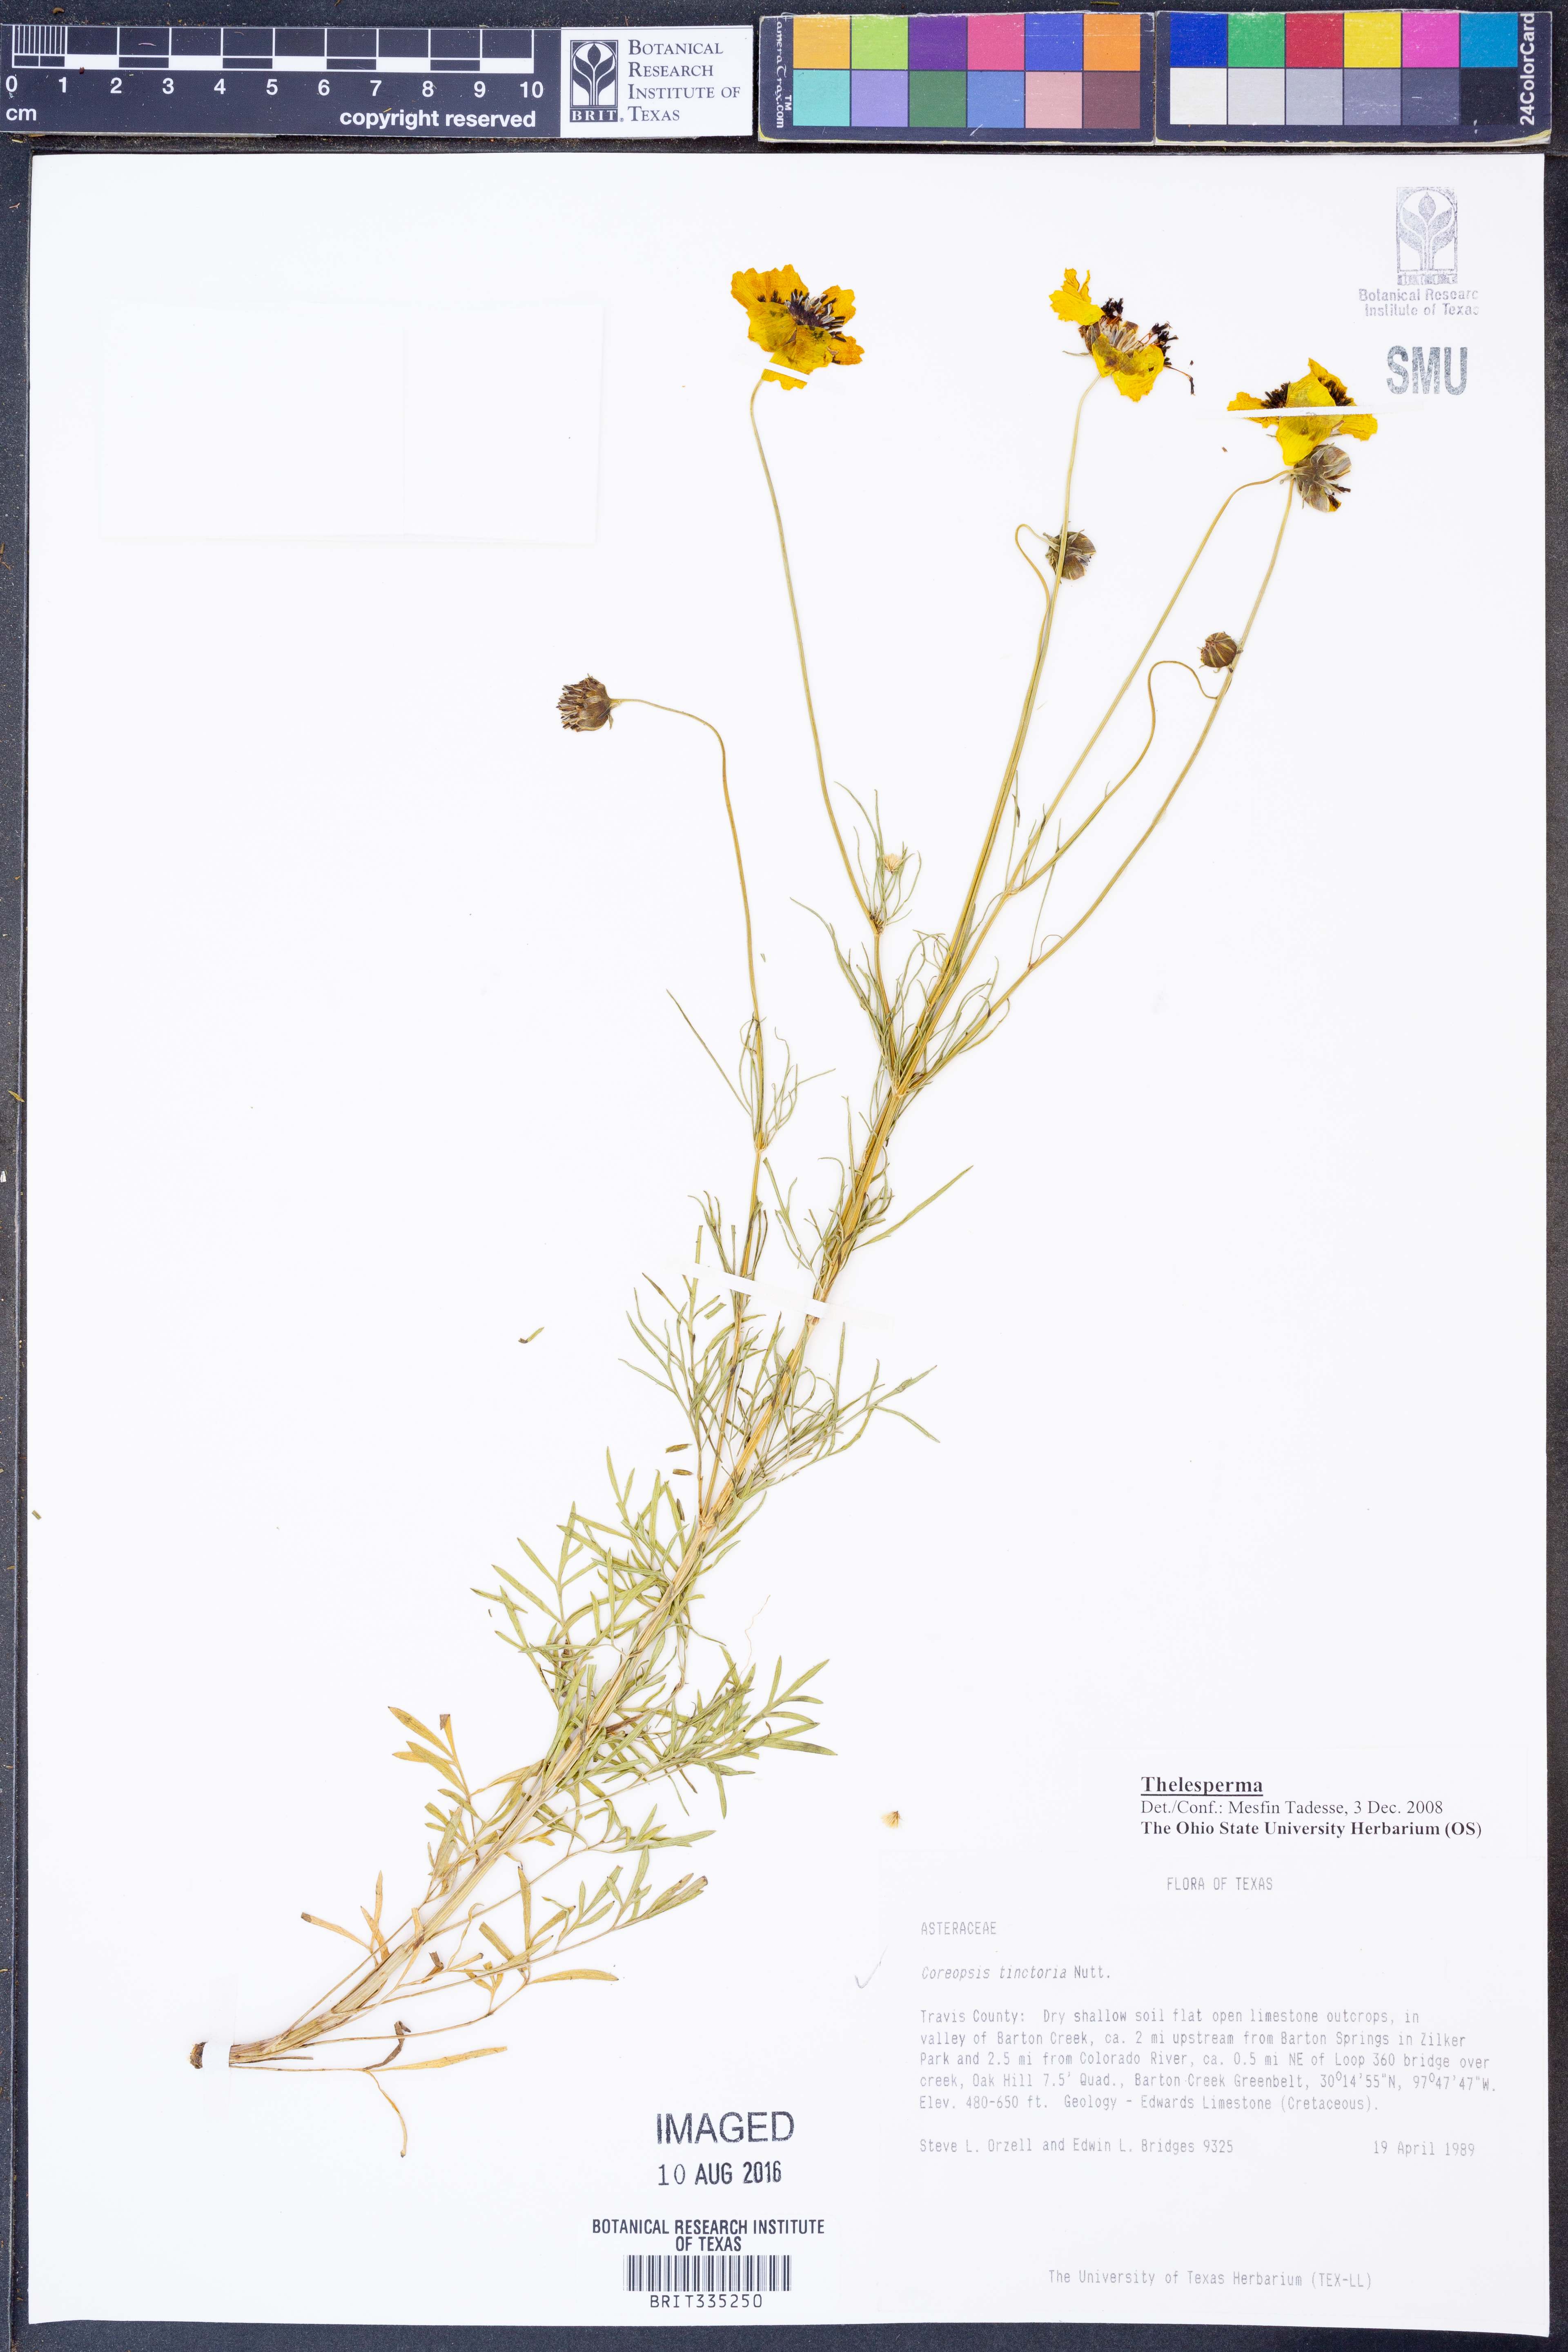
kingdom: Plantae
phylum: Tracheophyta
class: Magnoliopsida
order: Asterales
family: Asteraceae
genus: Thelesperma
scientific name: Thelesperma
